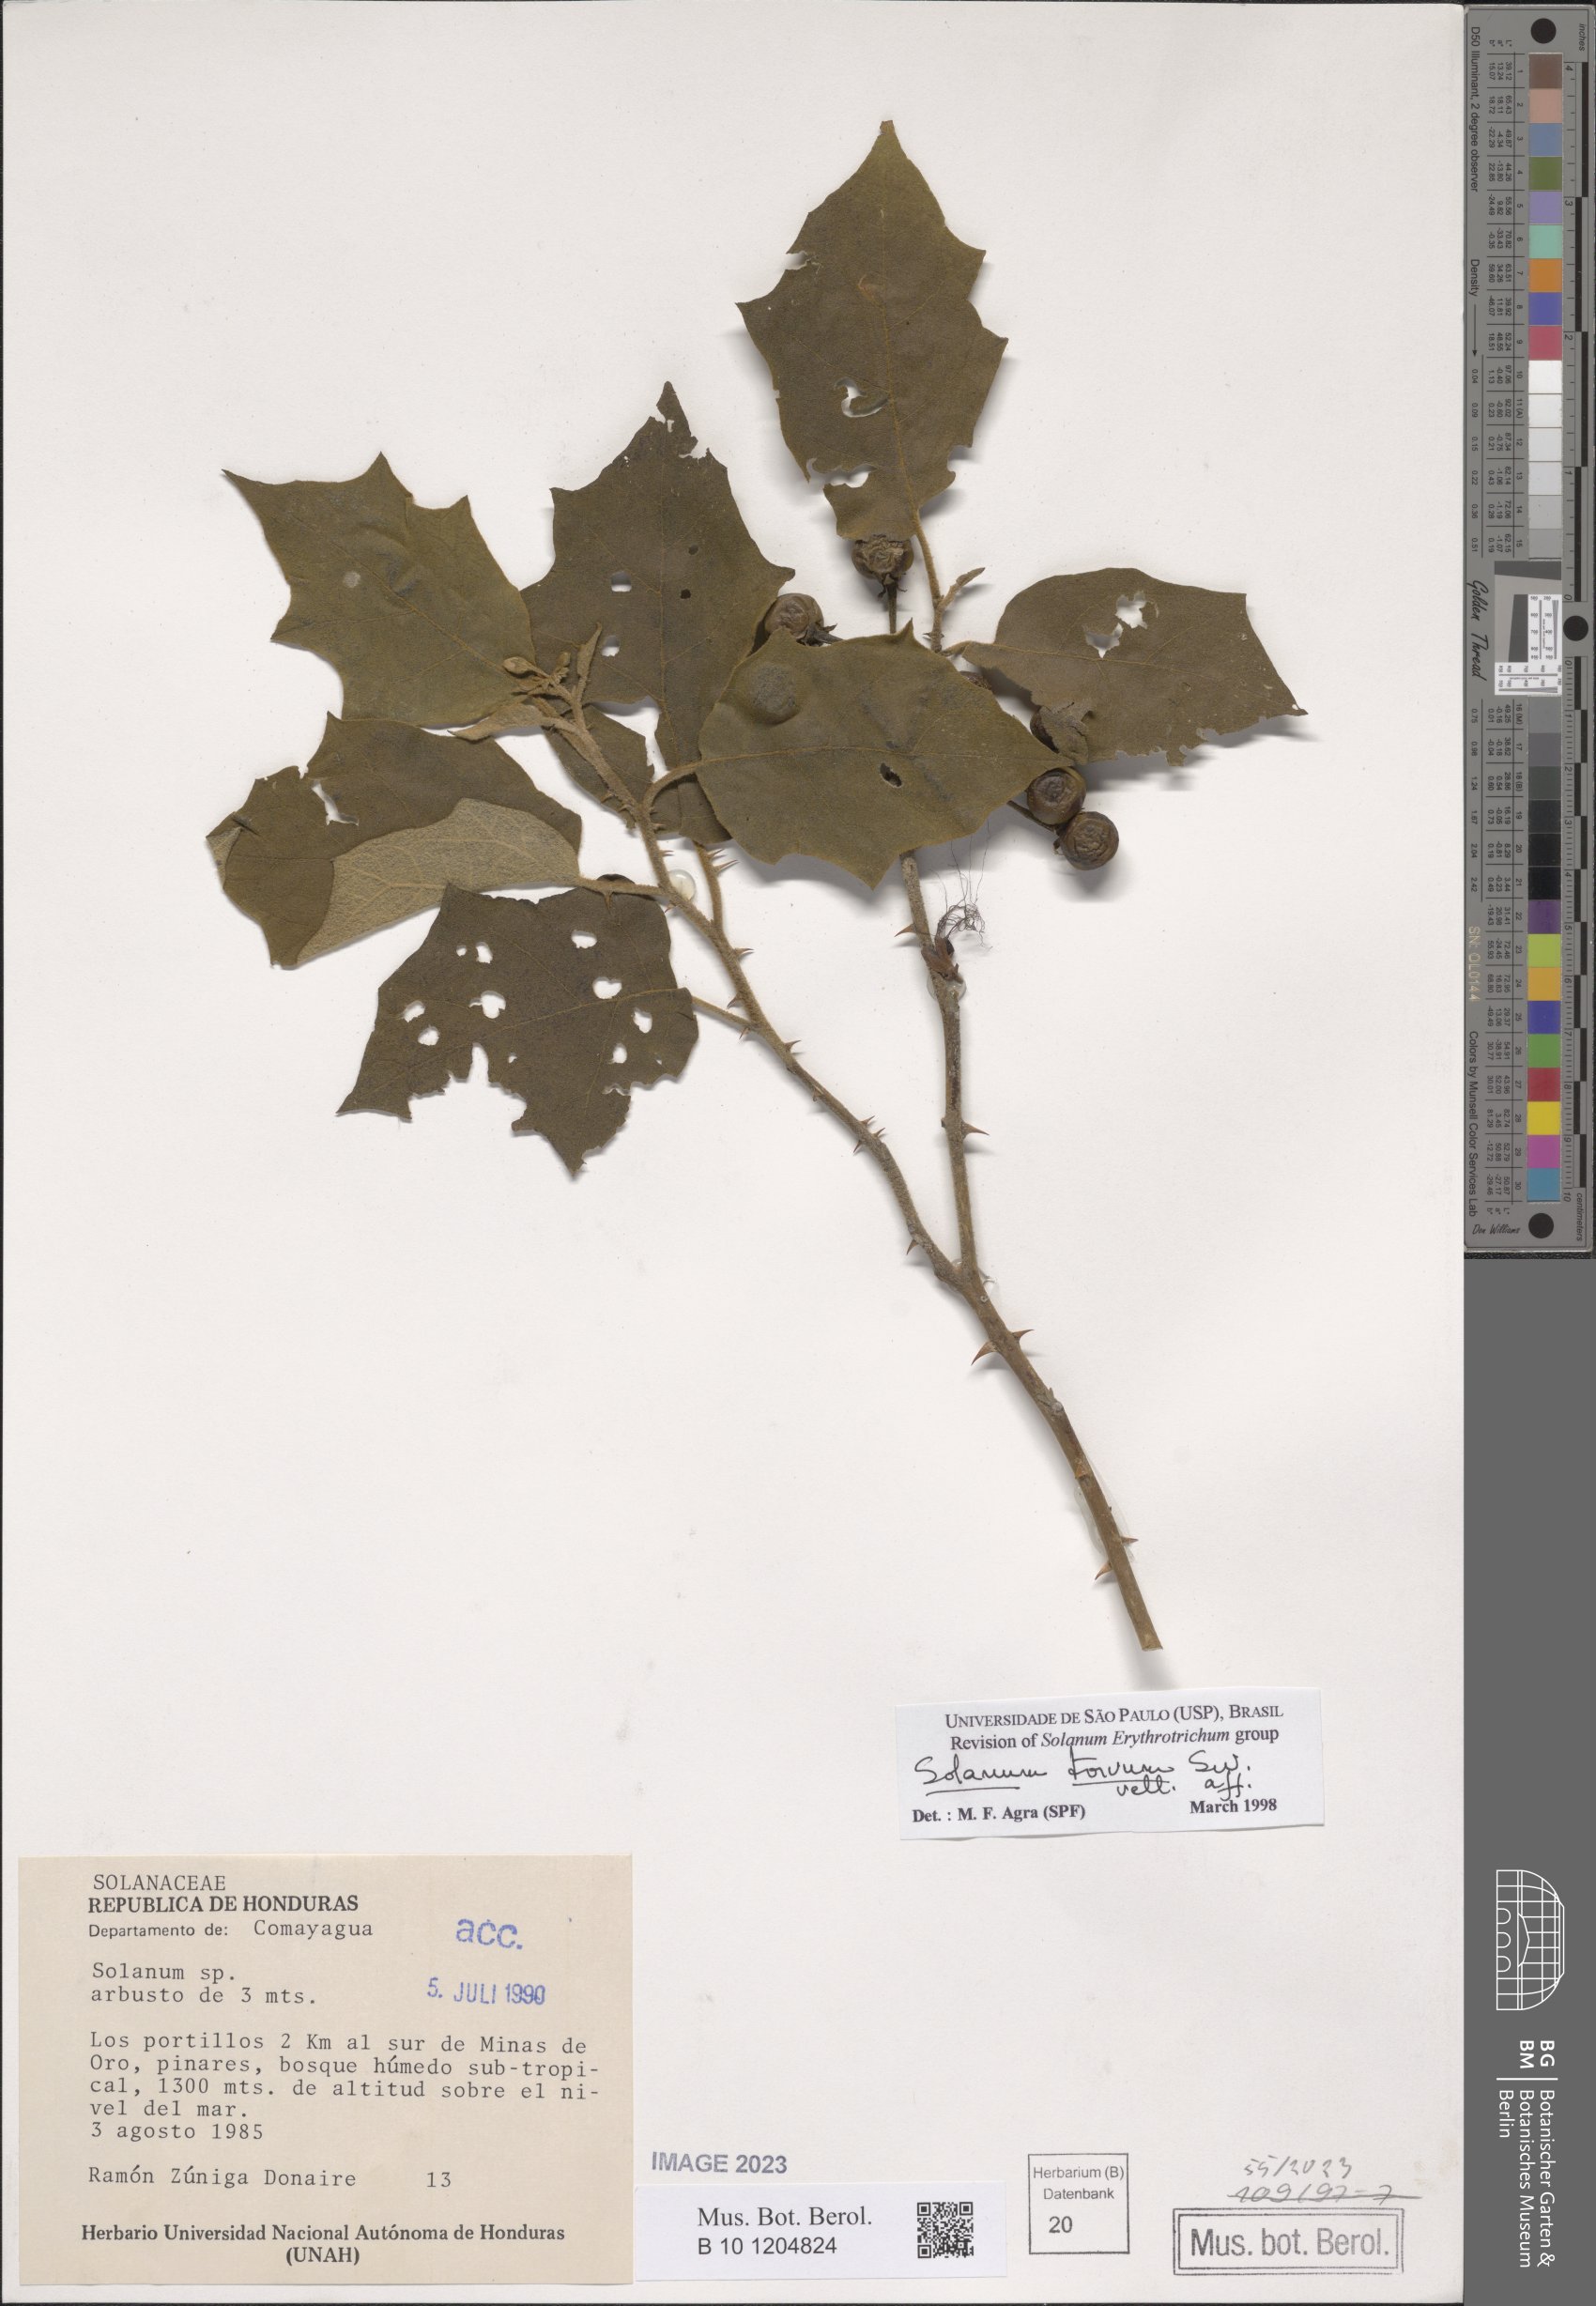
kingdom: Plantae
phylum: Tracheophyta
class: Magnoliopsida
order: Solanales
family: Solanaceae
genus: Solanum
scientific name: Solanum torvum
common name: Turkey berry
